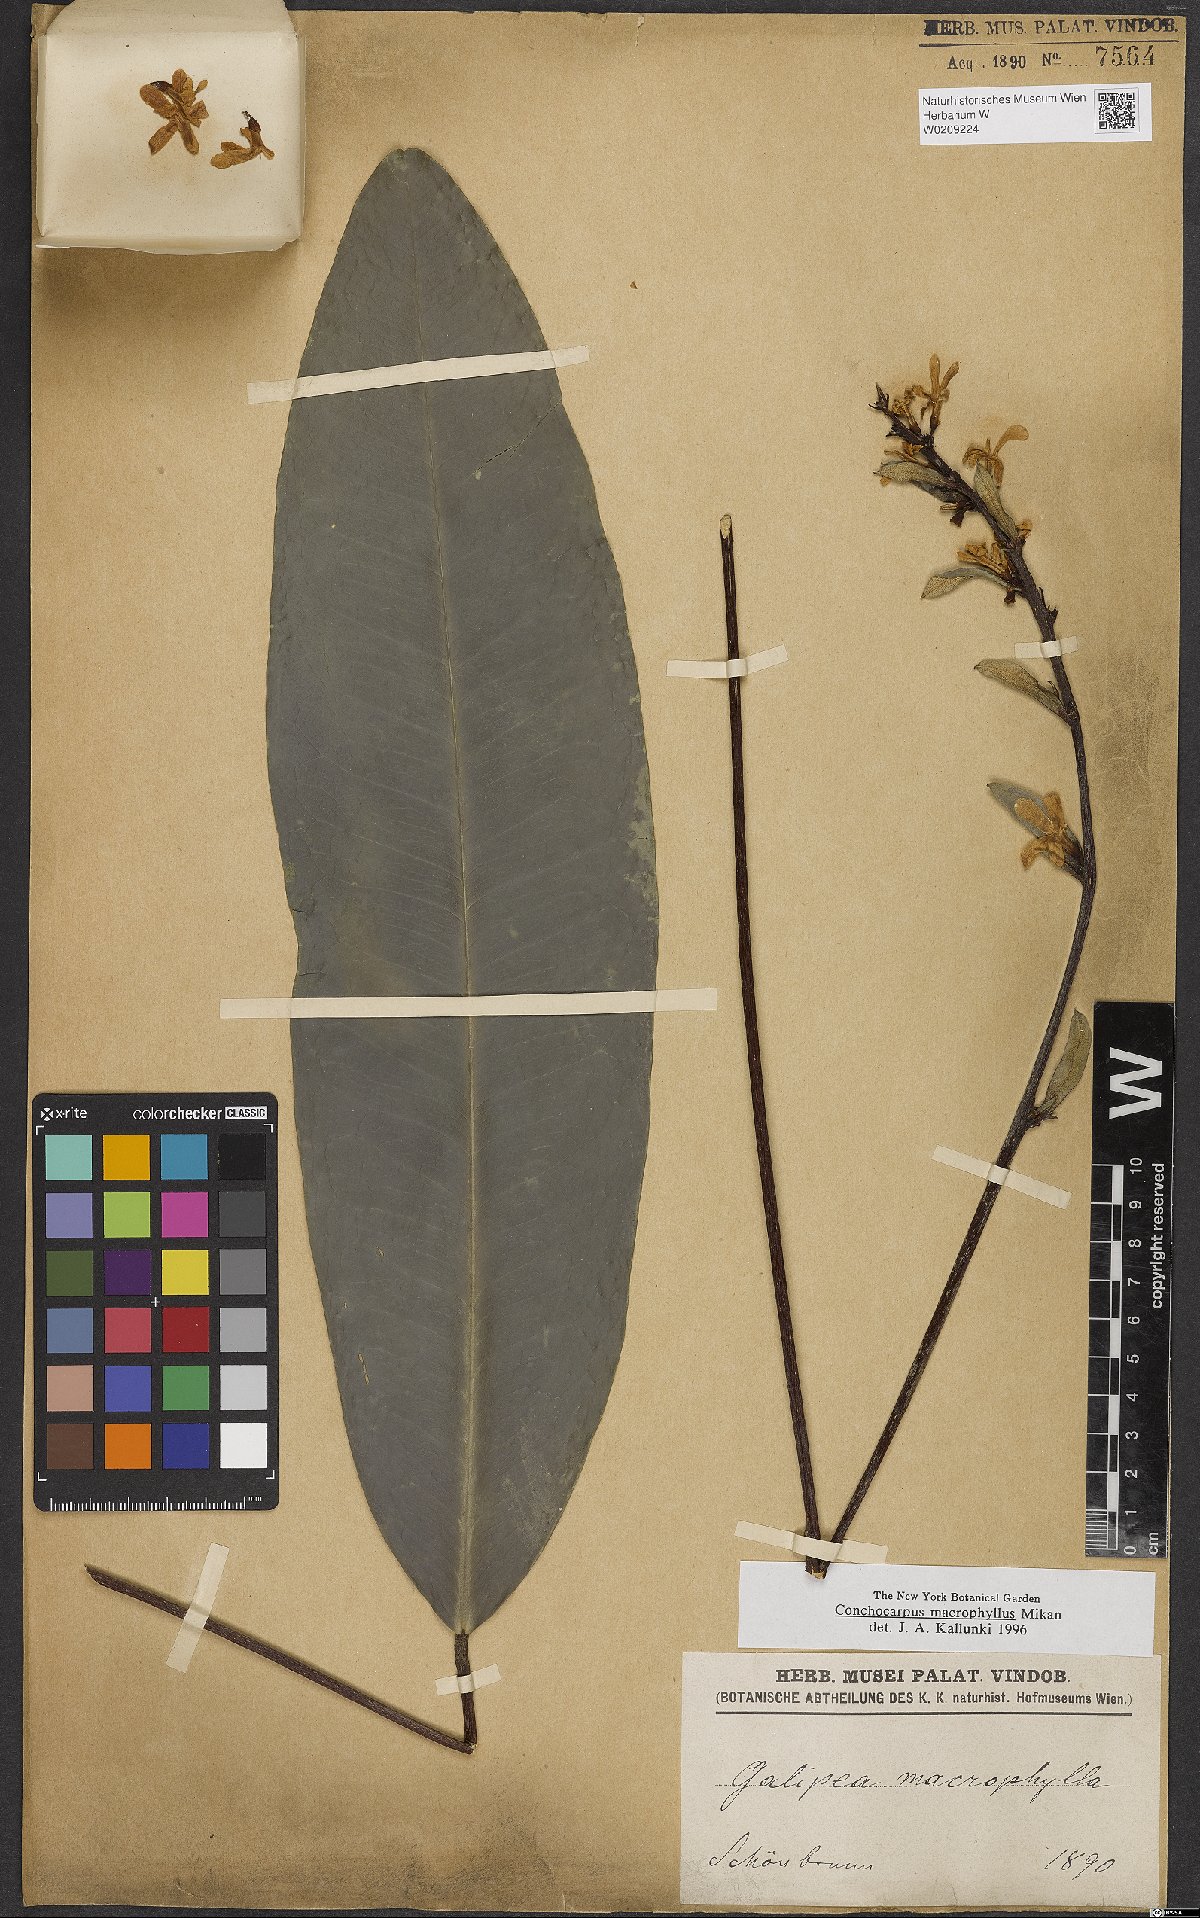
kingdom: Plantae
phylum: Tracheophyta
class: Magnoliopsida
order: Sapindales
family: Rutaceae
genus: Conchocarpus
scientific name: Conchocarpus macrophyllus
